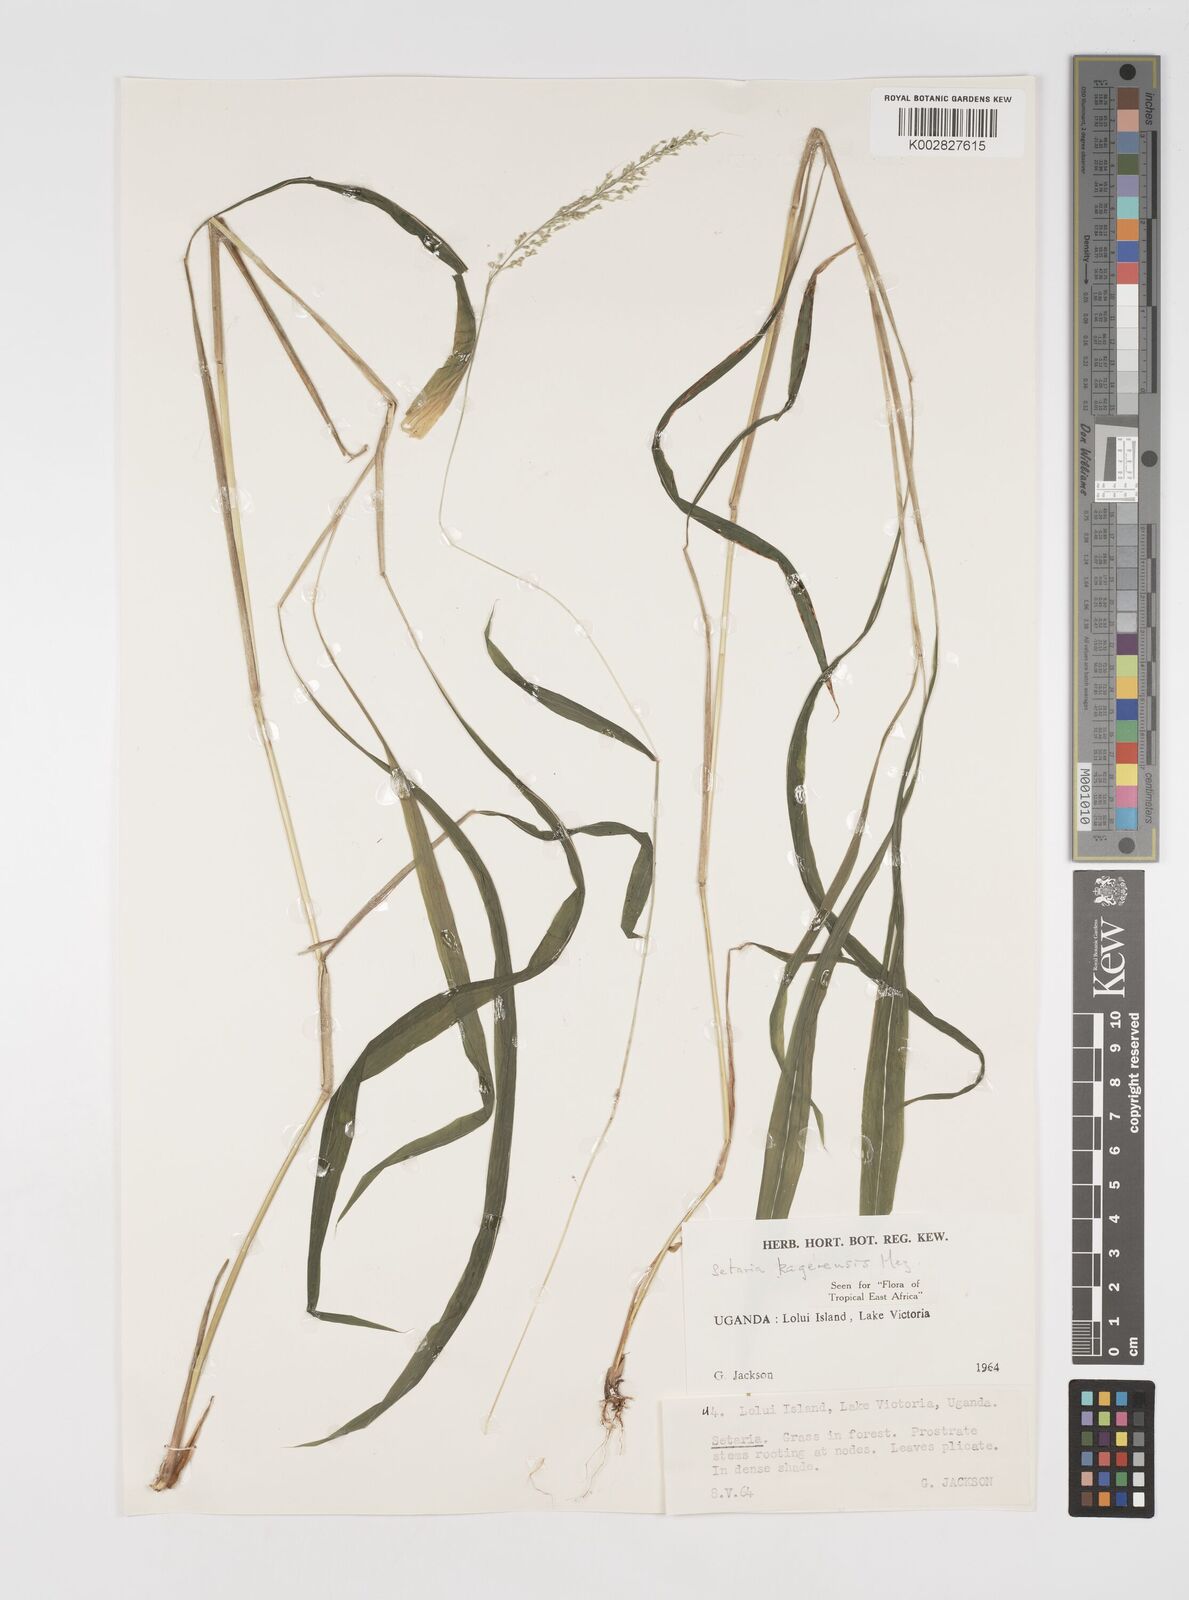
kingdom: Plantae
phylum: Tracheophyta
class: Liliopsida
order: Poales
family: Poaceae
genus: Setaria
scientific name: Setaria kagerensis
